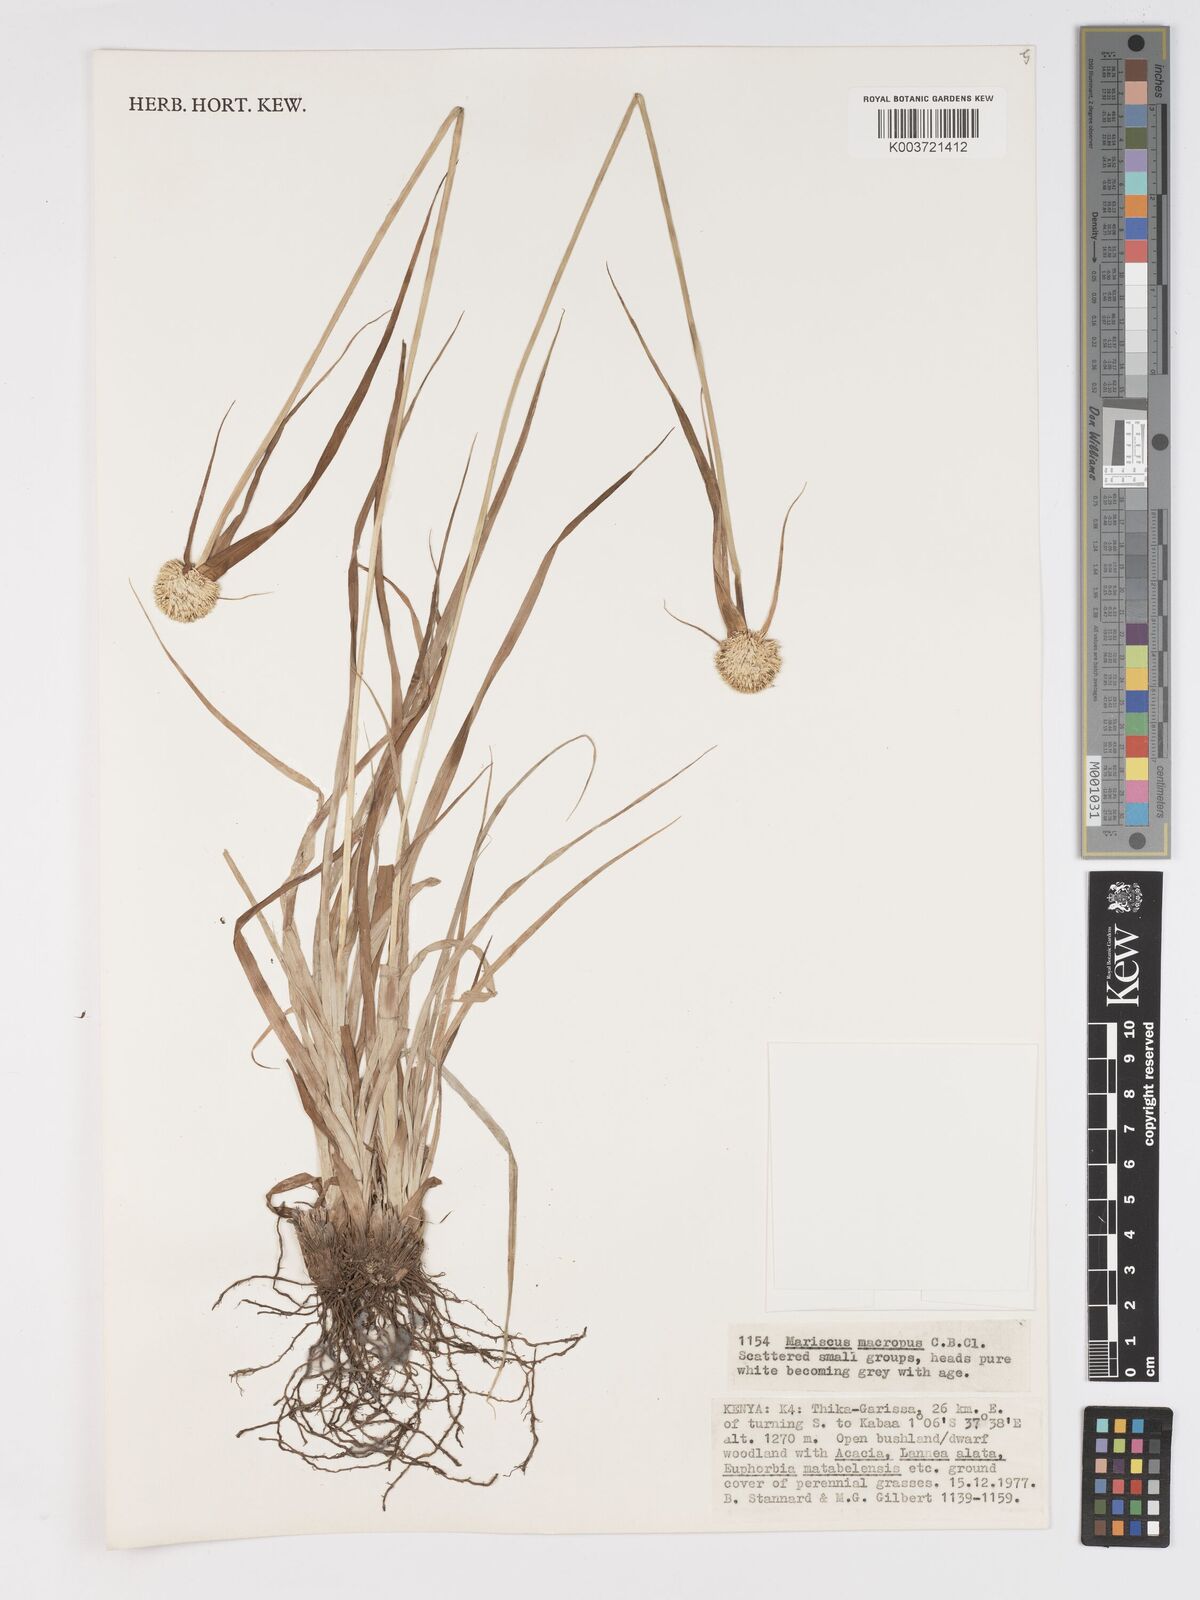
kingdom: Plantae
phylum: Tracheophyta
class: Liliopsida
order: Poales
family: Cyperaceae
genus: Cyperus
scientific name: Cyperus mollipes
